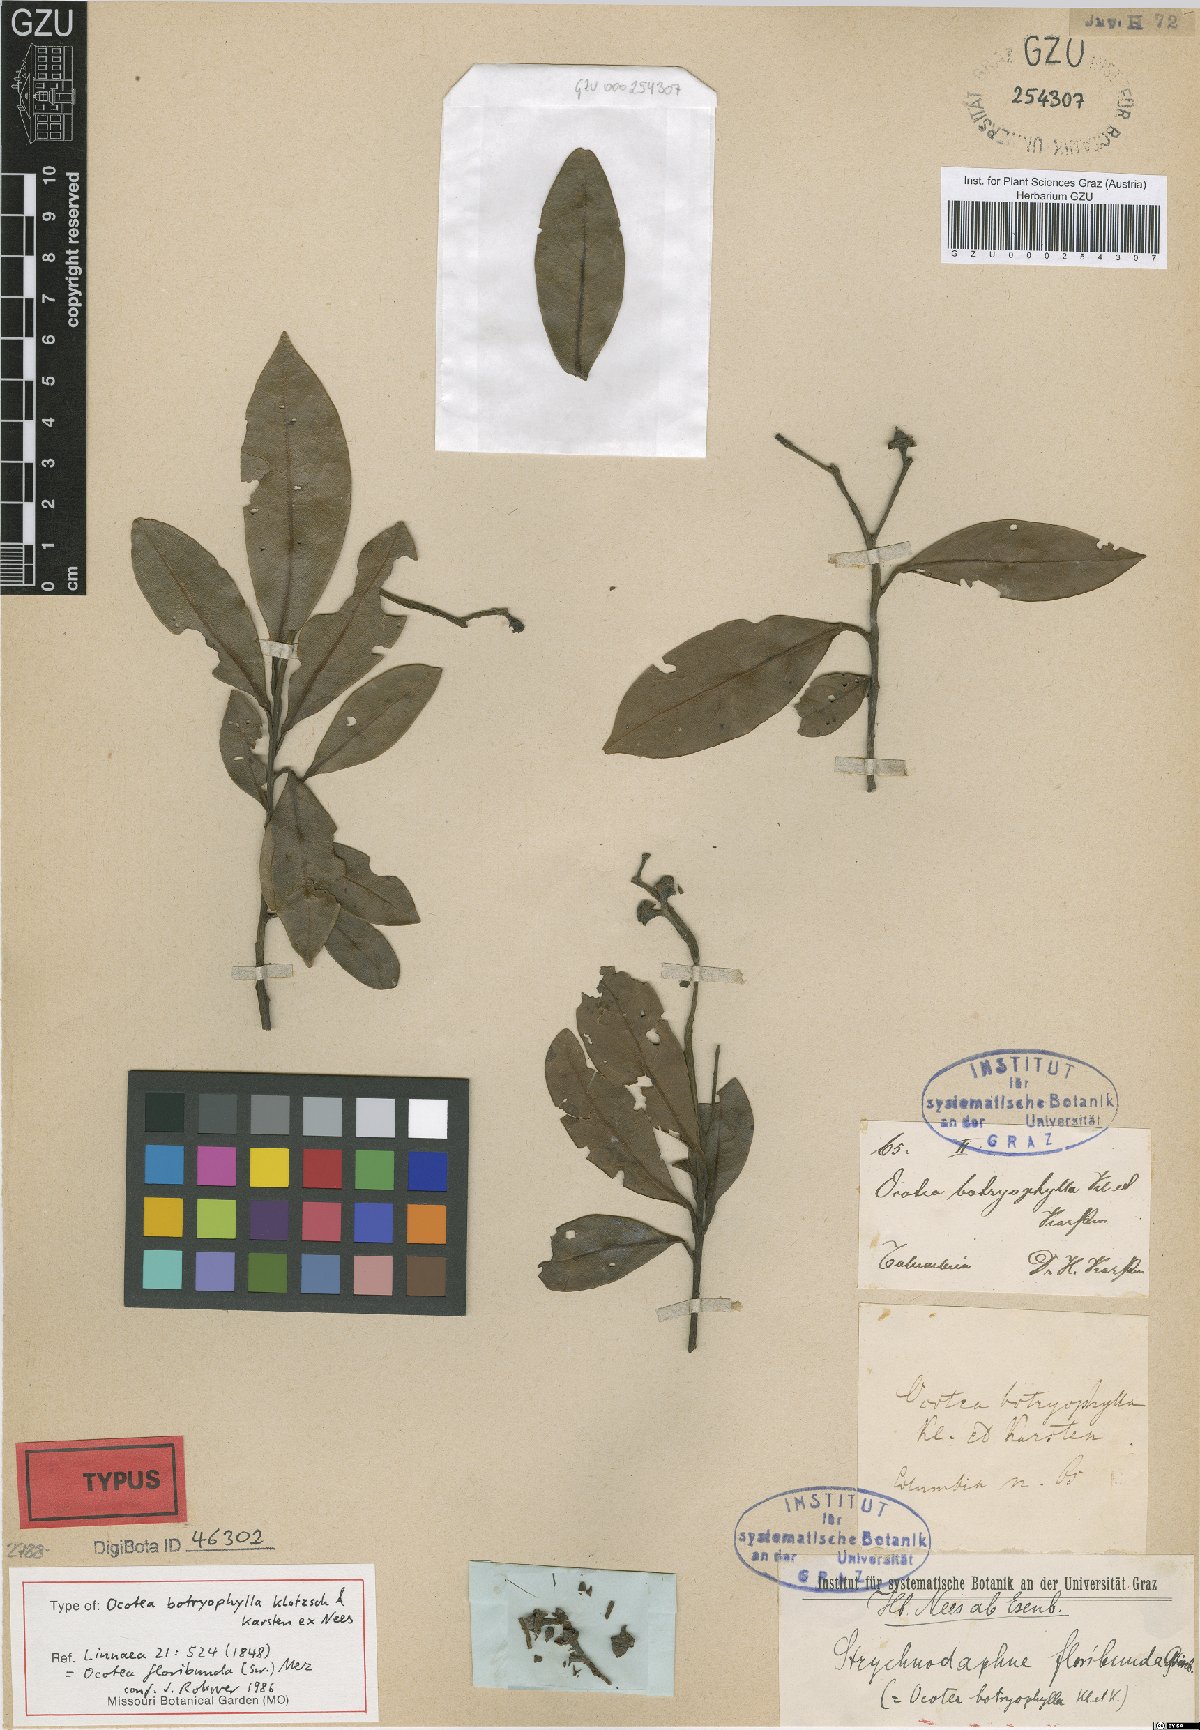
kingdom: Plantae
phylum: Tracheophyta
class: Magnoliopsida
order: Laurales
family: Lauraceae
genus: Ocotea
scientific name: Ocotea floribunda
